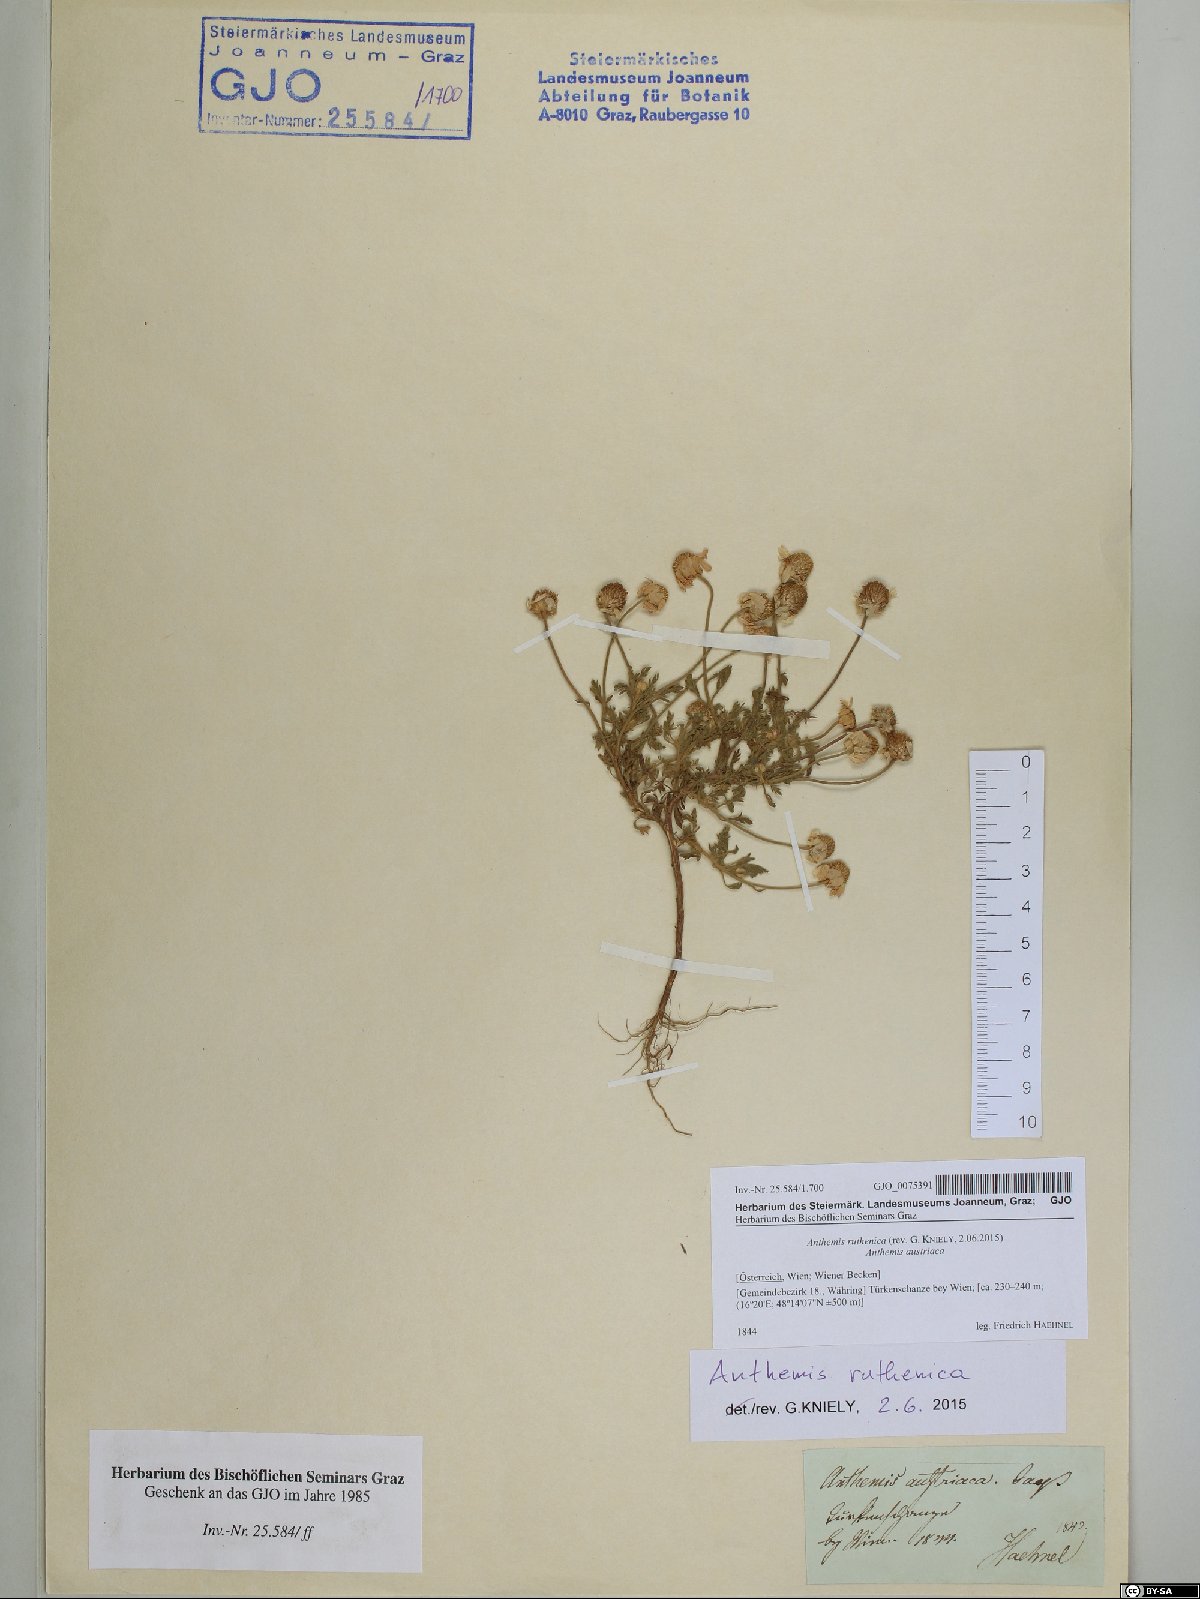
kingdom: Plantae
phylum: Tracheophyta
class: Magnoliopsida
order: Asterales
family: Asteraceae
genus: Anthemis
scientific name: Anthemis ruthenica
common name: Eastern chamomile
